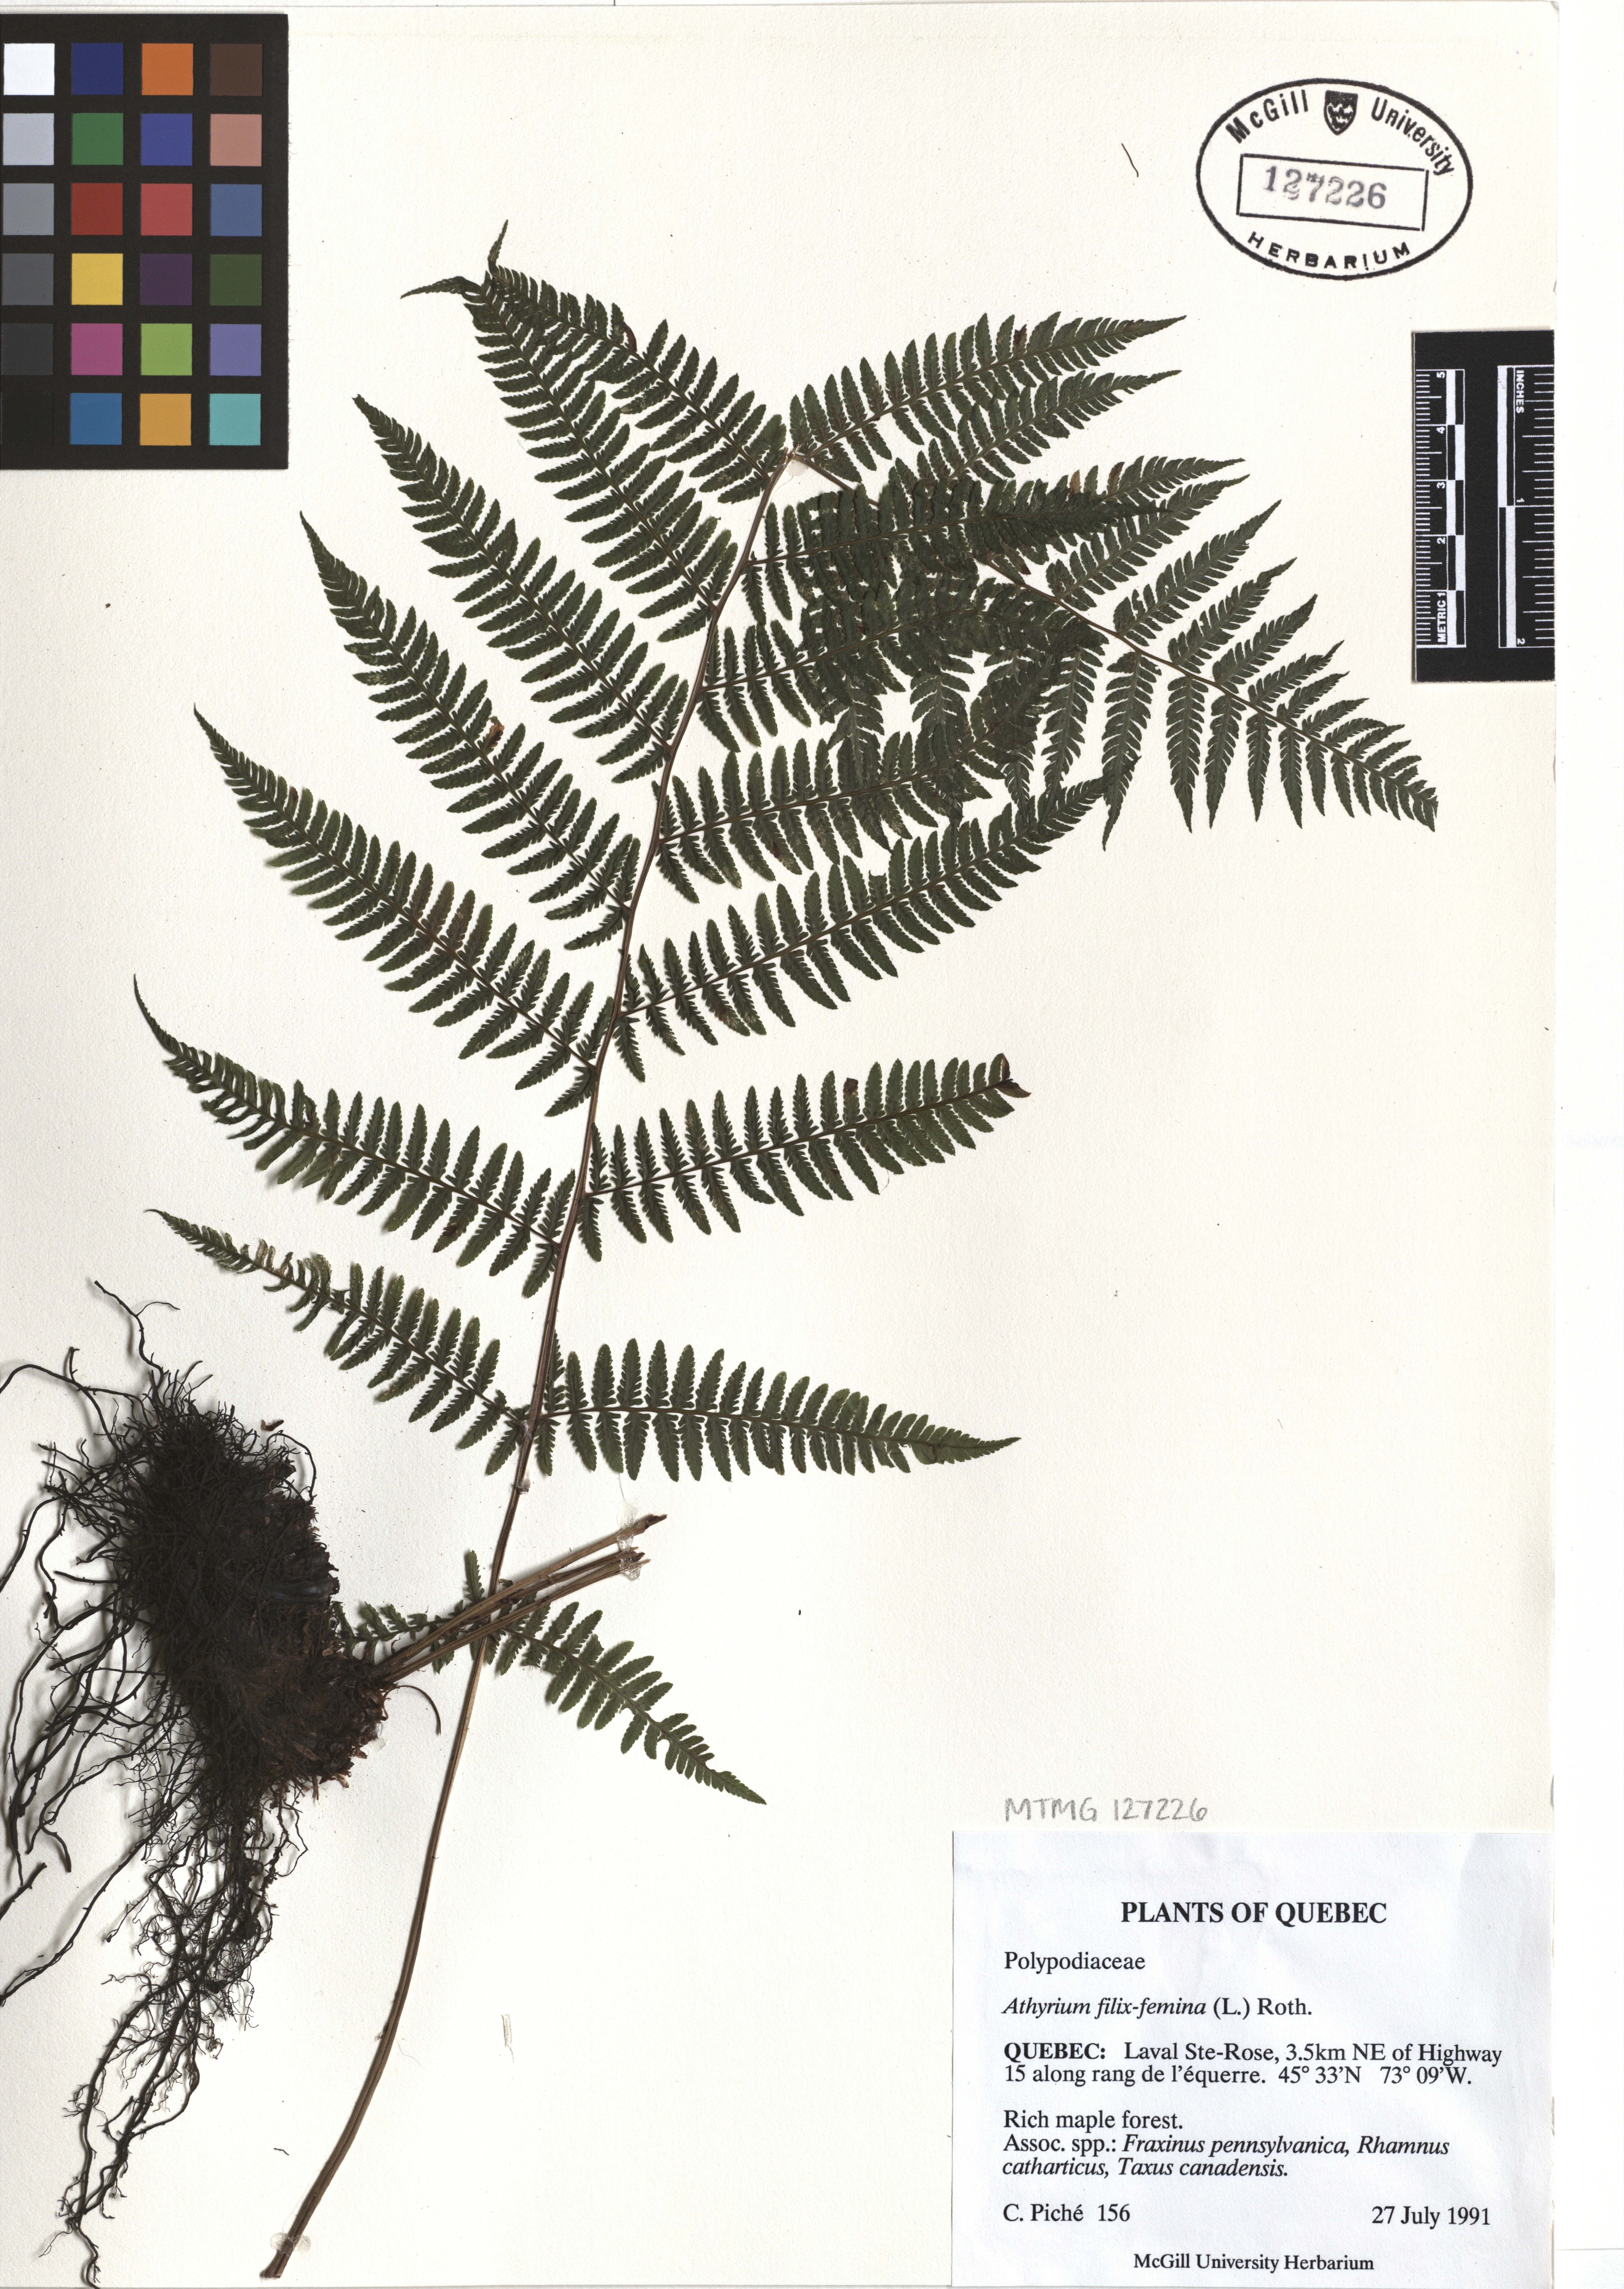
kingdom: Plantae
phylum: Tracheophyta
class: Polypodiopsida
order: Polypodiales
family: Athyriaceae
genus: Athyrium
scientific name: Athyrium filix-femina
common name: Lady fern
